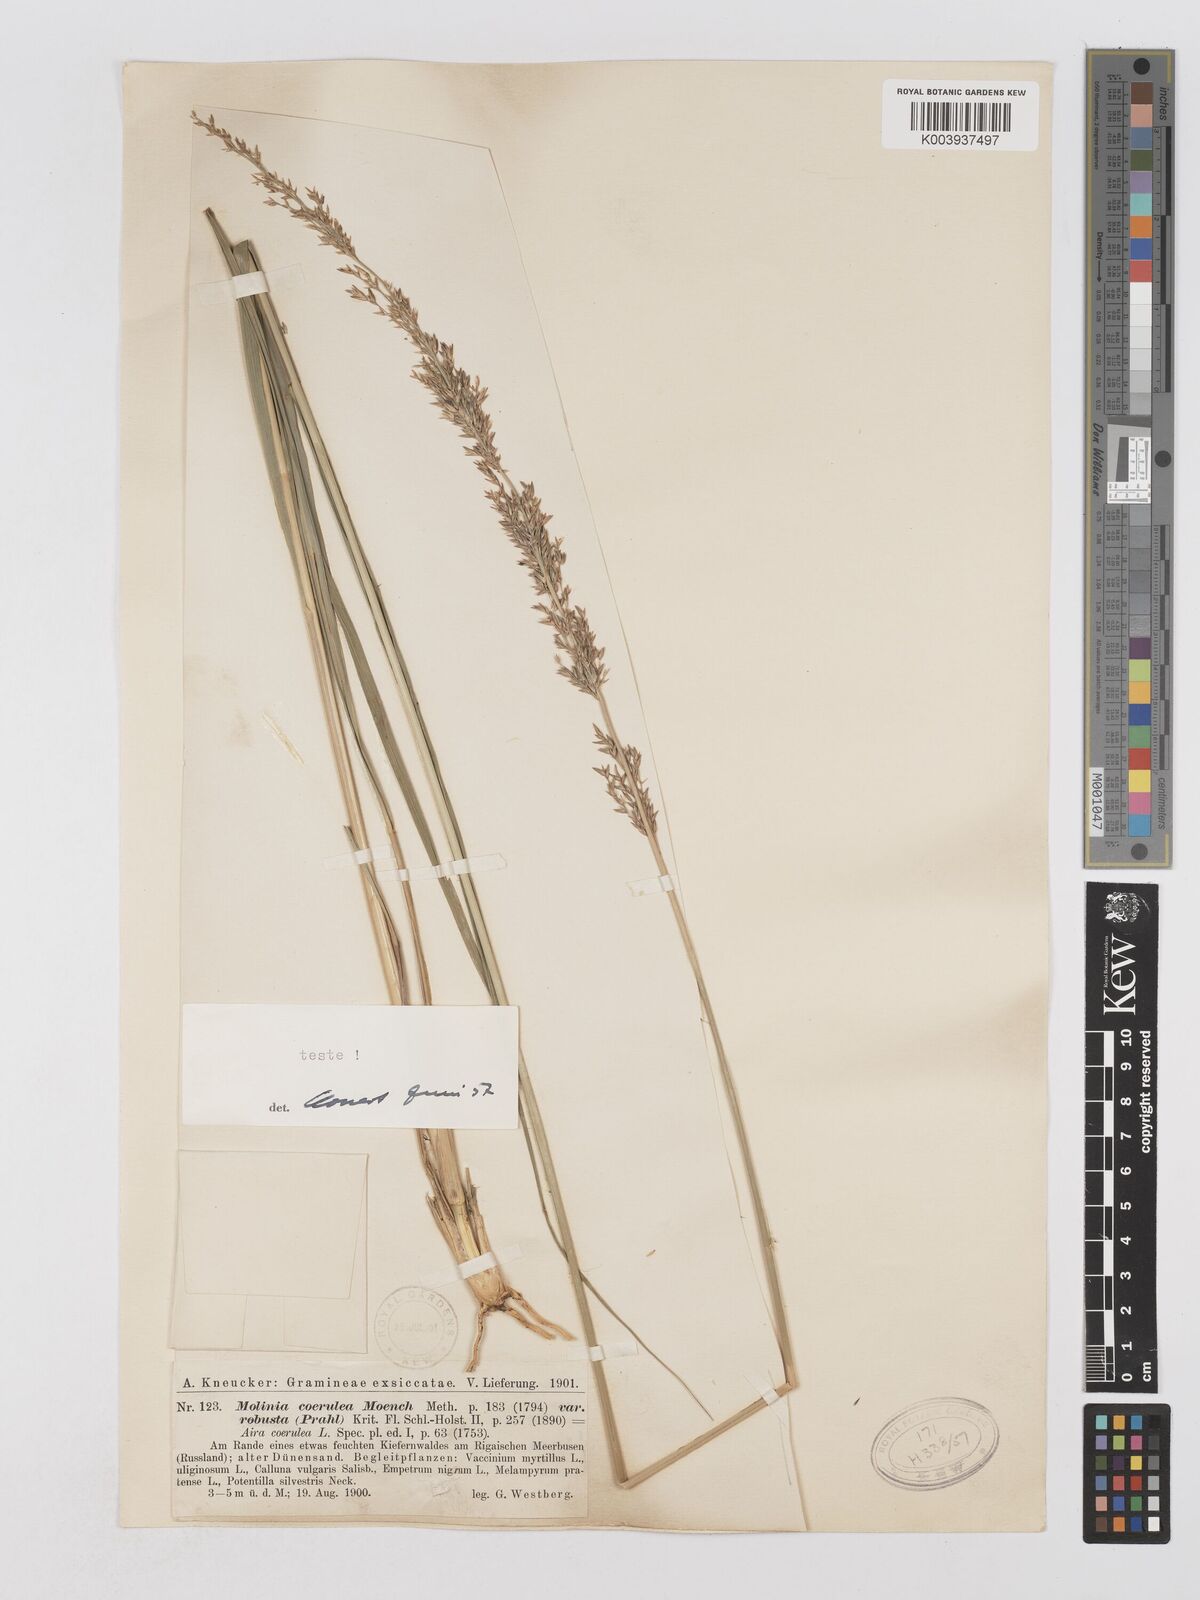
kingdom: Plantae
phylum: Tracheophyta
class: Liliopsida
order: Poales
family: Poaceae
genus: Molinia
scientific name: Molinia caerulea
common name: Purple moor-grass
